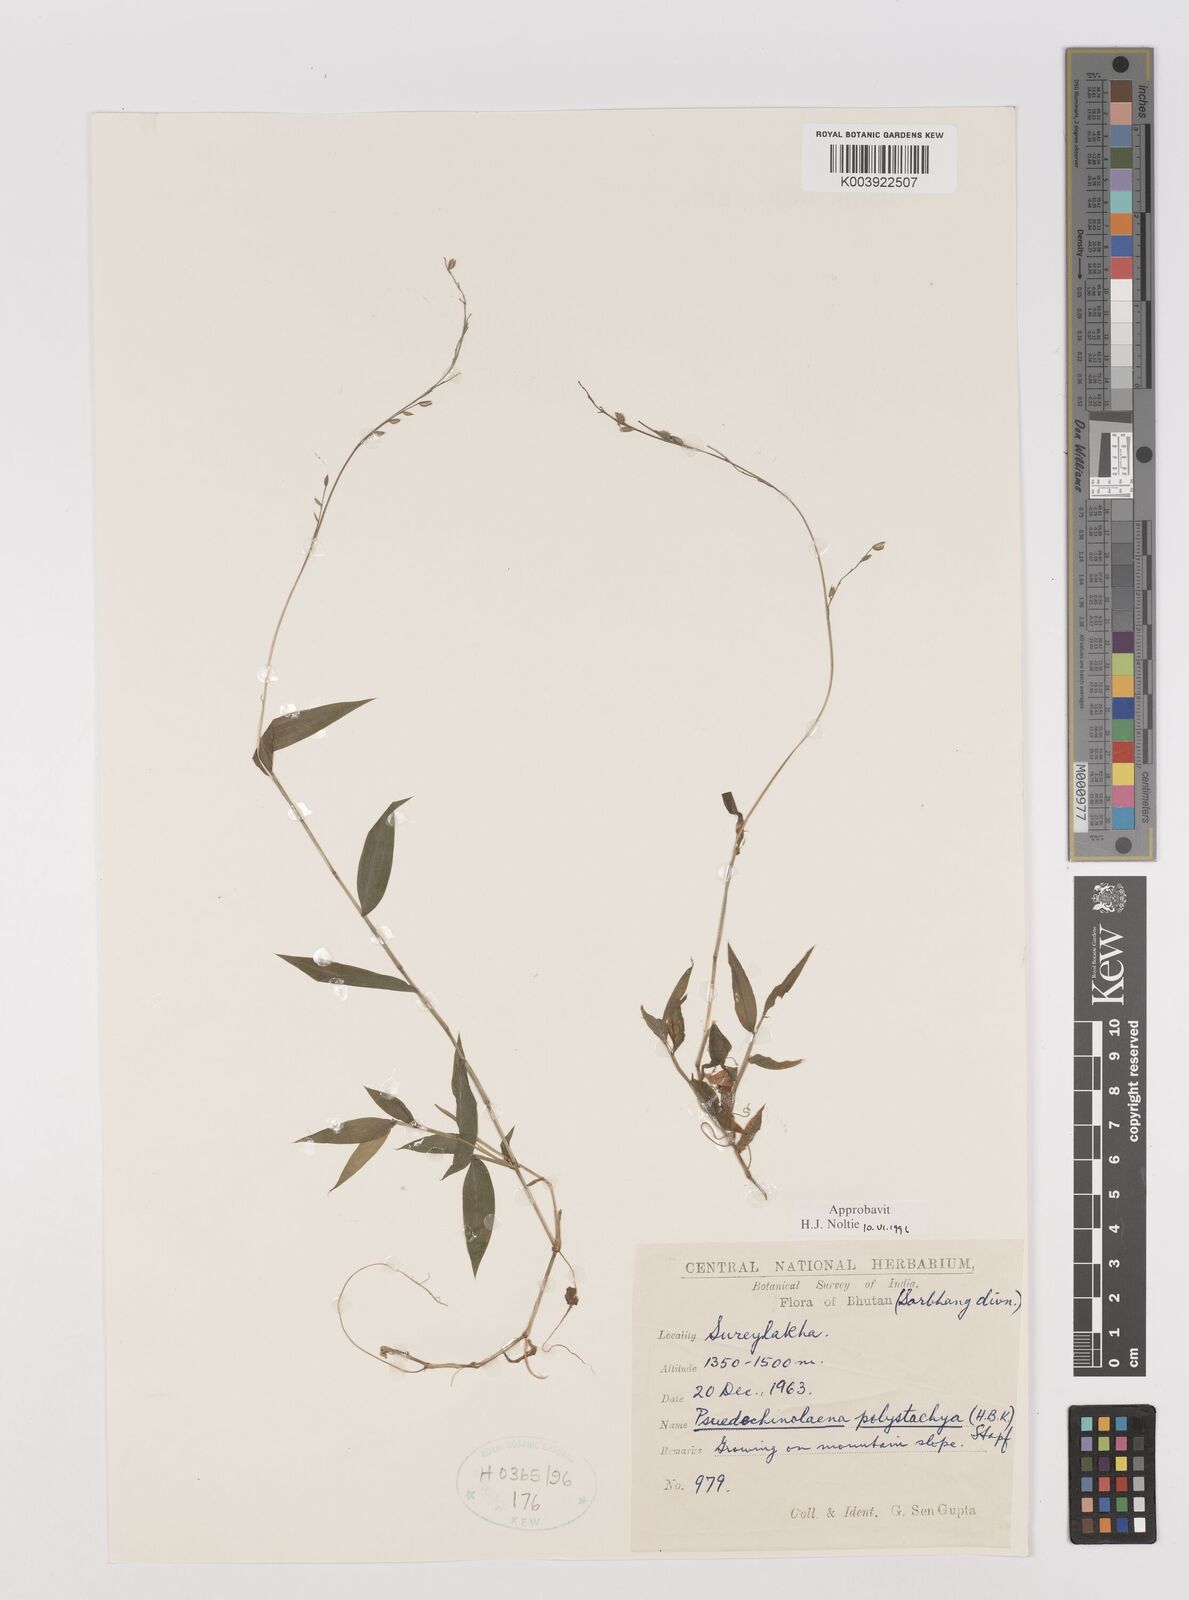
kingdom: Plantae
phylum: Tracheophyta
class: Liliopsida
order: Poales
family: Poaceae
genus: Pseudechinolaena
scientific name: Pseudechinolaena polystachya
